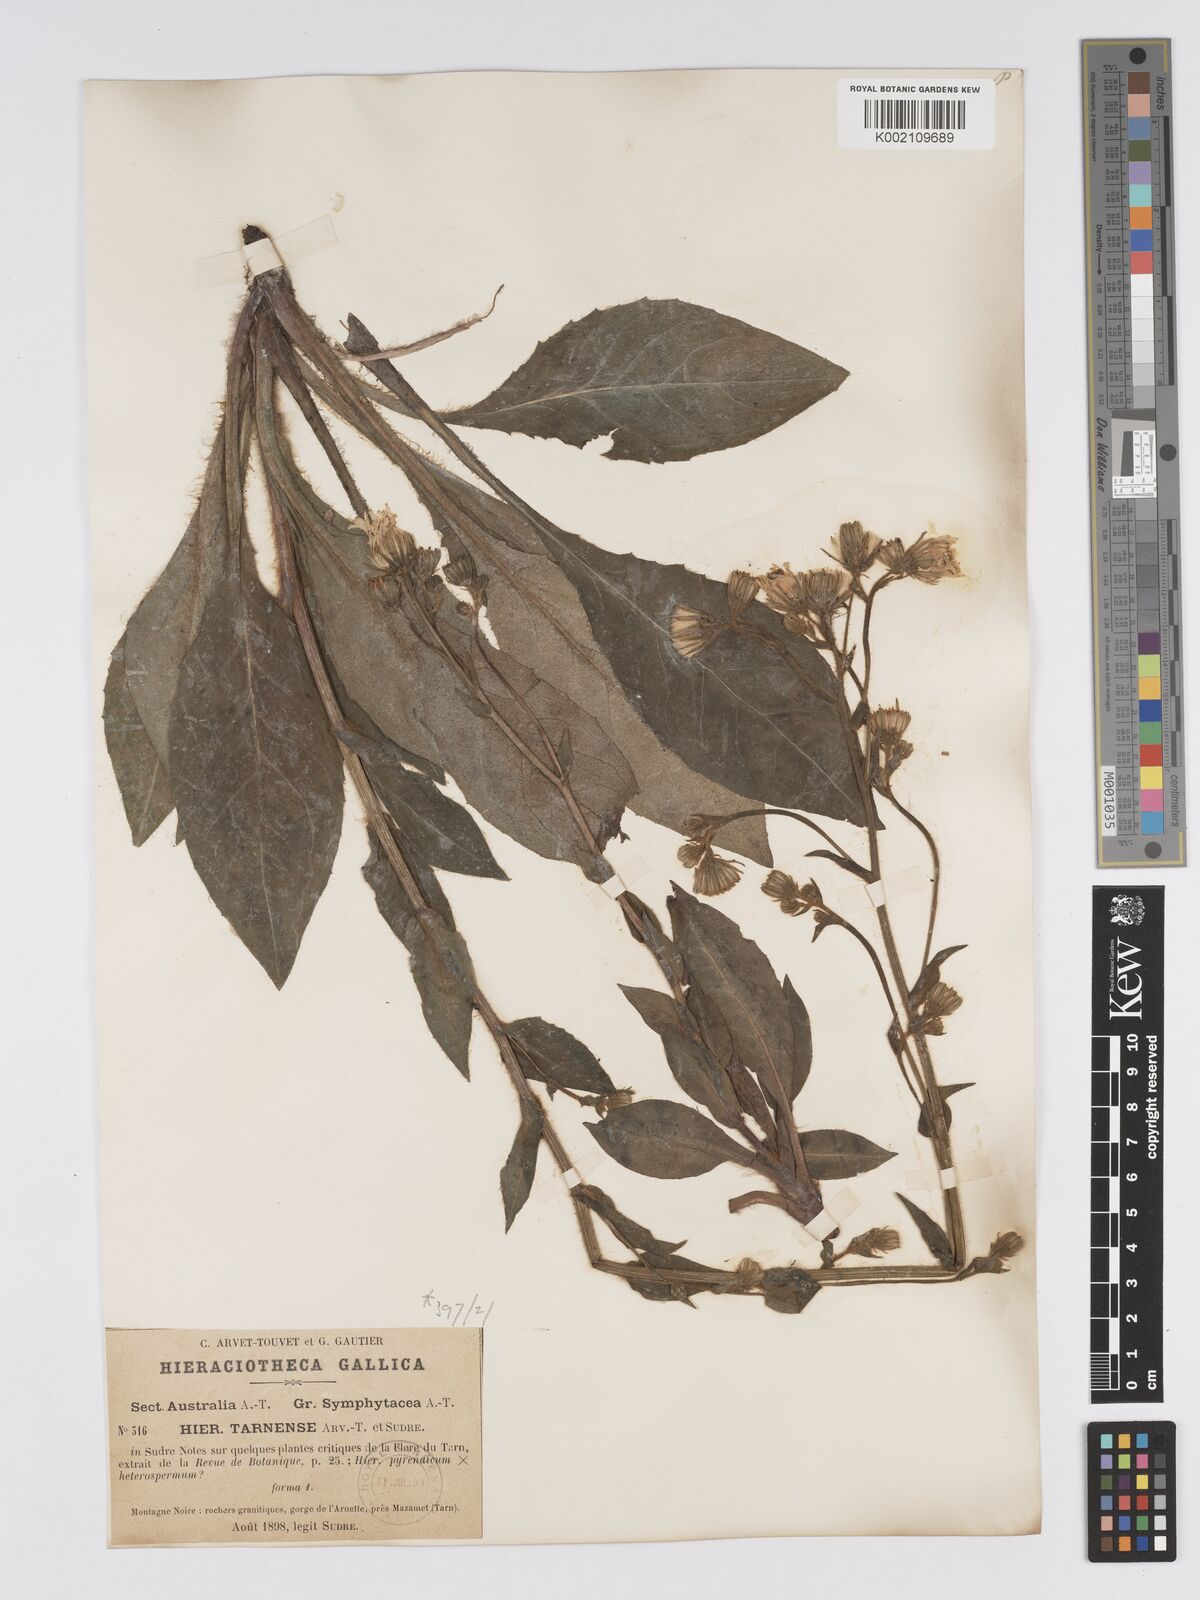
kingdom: Plantae
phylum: Tracheophyta
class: Magnoliopsida
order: Asterales
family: Asteraceae
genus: Hieracium
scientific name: Hieracium nobile
